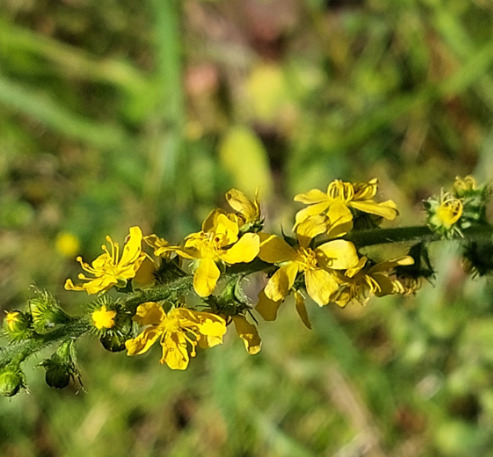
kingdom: Plantae
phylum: Tracheophyta
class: Magnoliopsida
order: Rosales
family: Rosaceae
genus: Agrimonia
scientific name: Agrimonia eupatoria
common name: Almindelig agermåne
